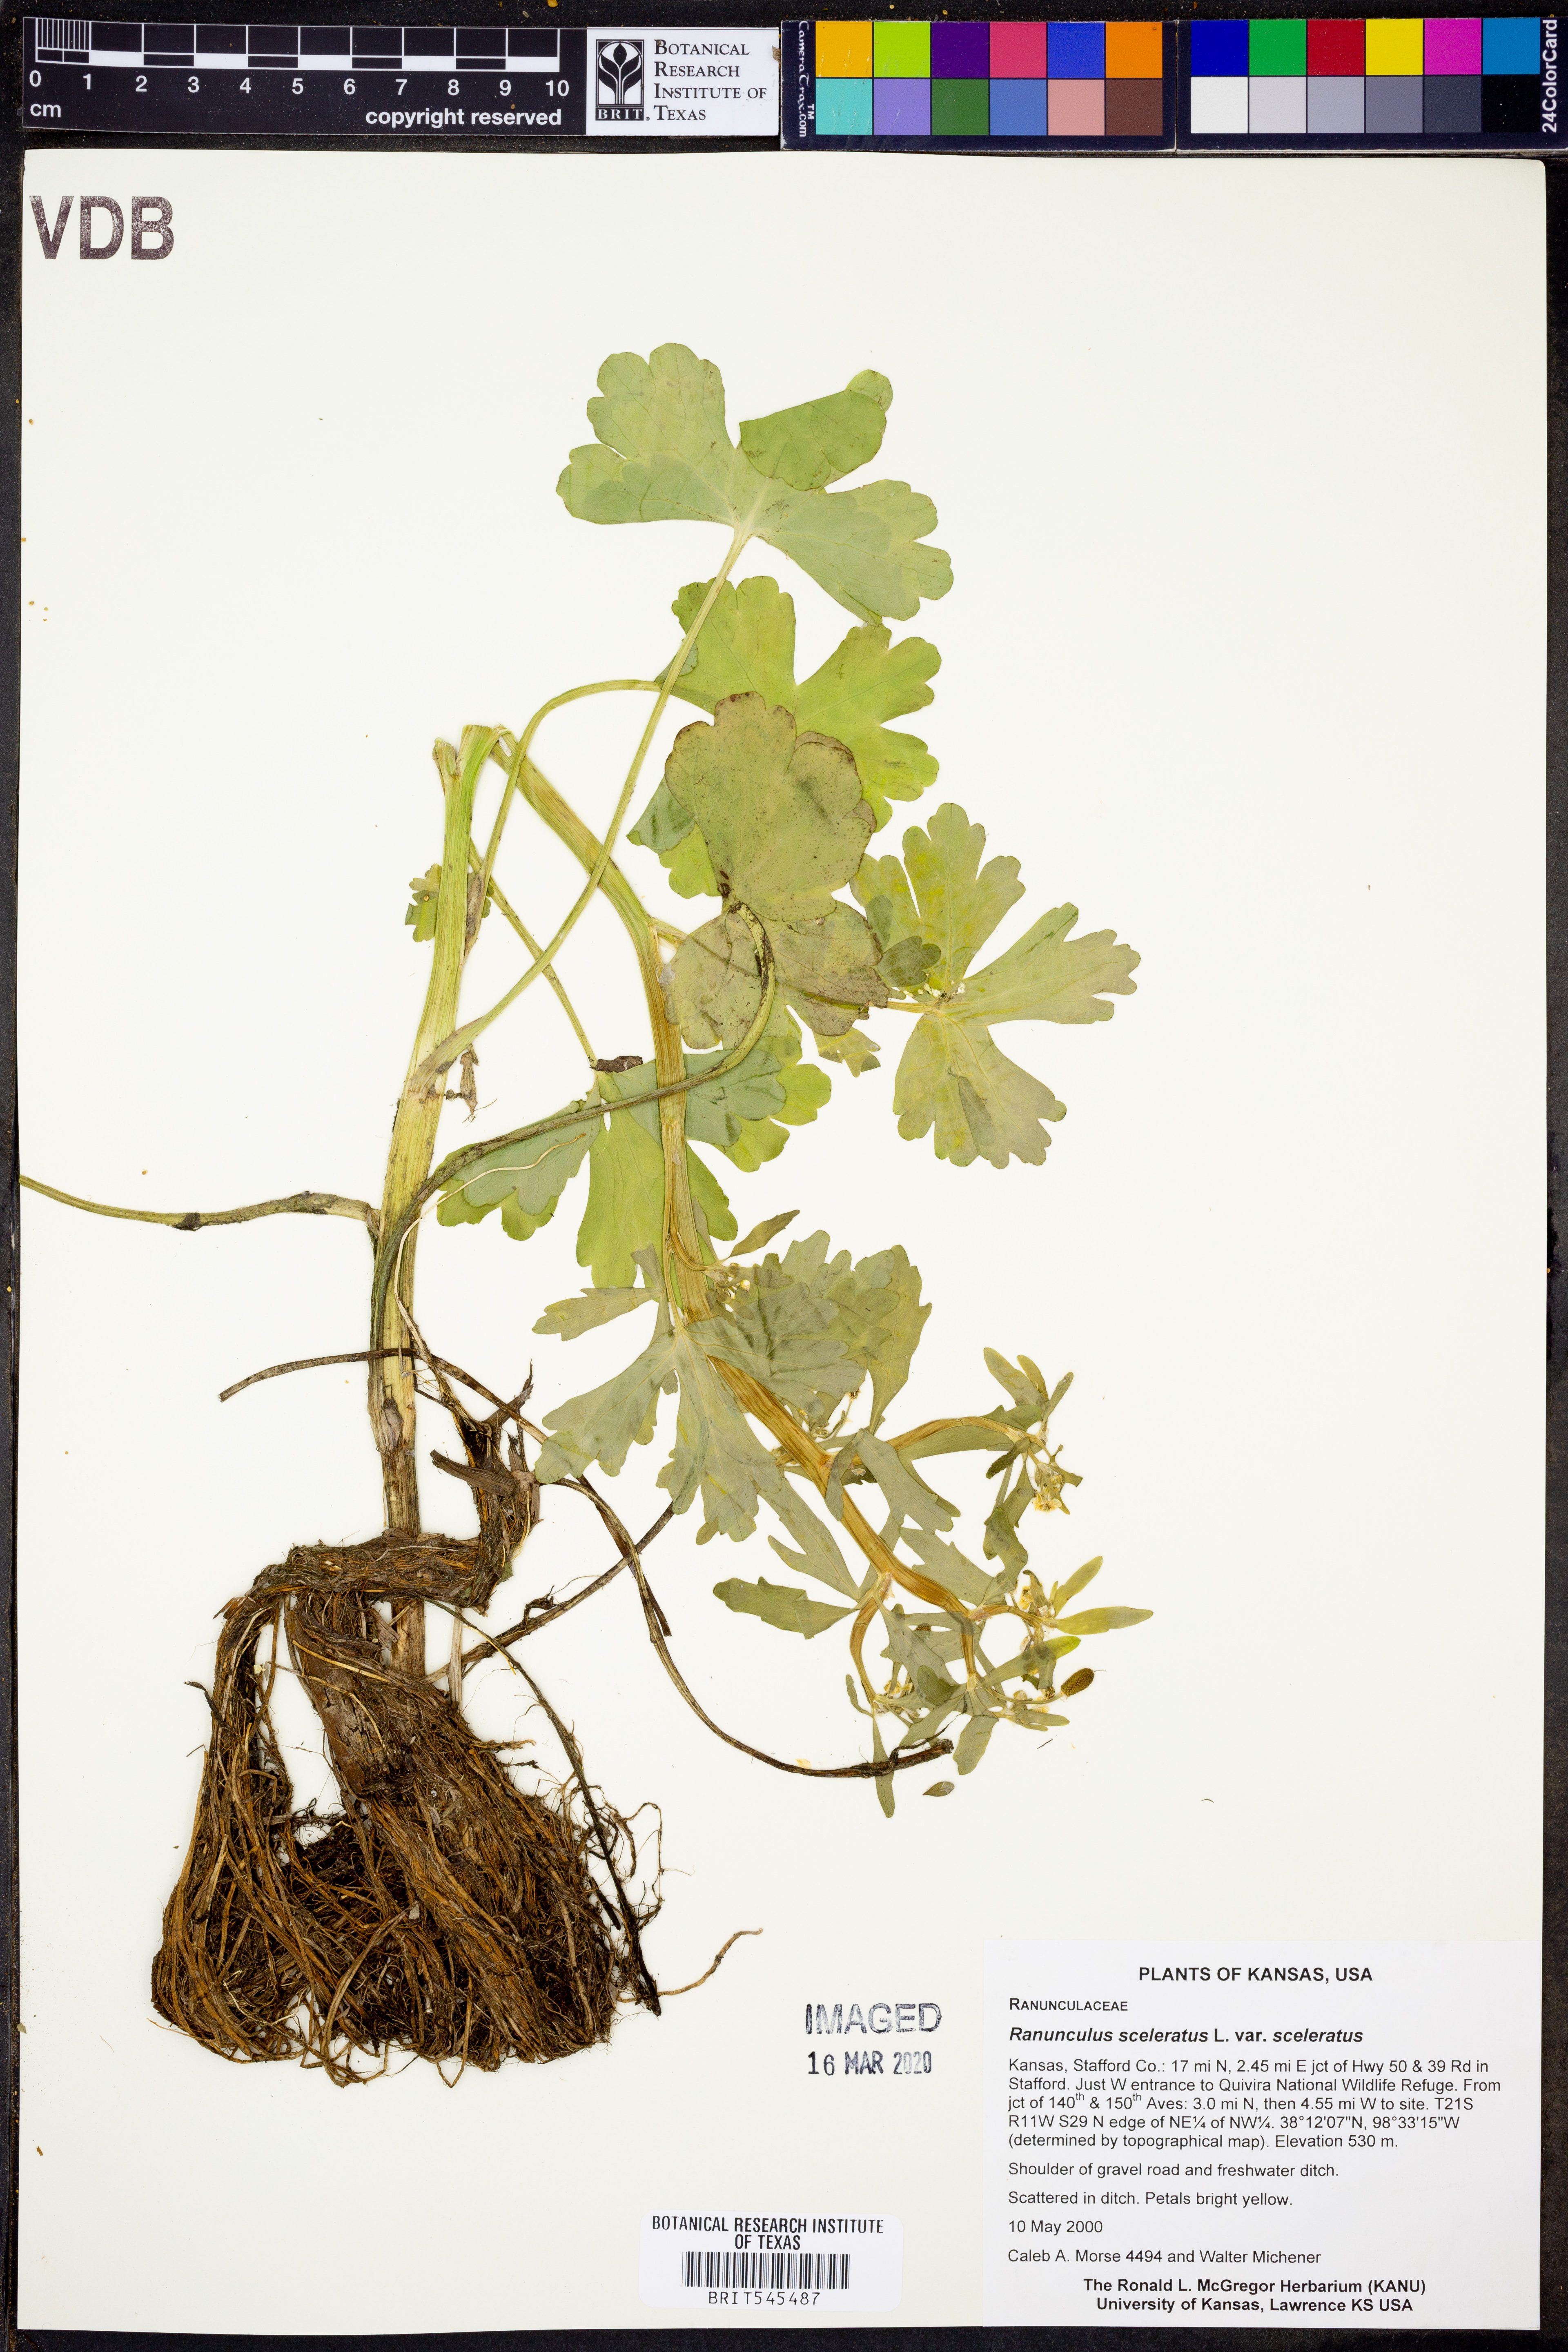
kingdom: Plantae
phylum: Tracheophyta
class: Magnoliopsida
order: Ranunculales
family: Ranunculaceae
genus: Ranunculus
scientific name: Ranunculus sceleratus
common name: Celery-leaved buttercup
